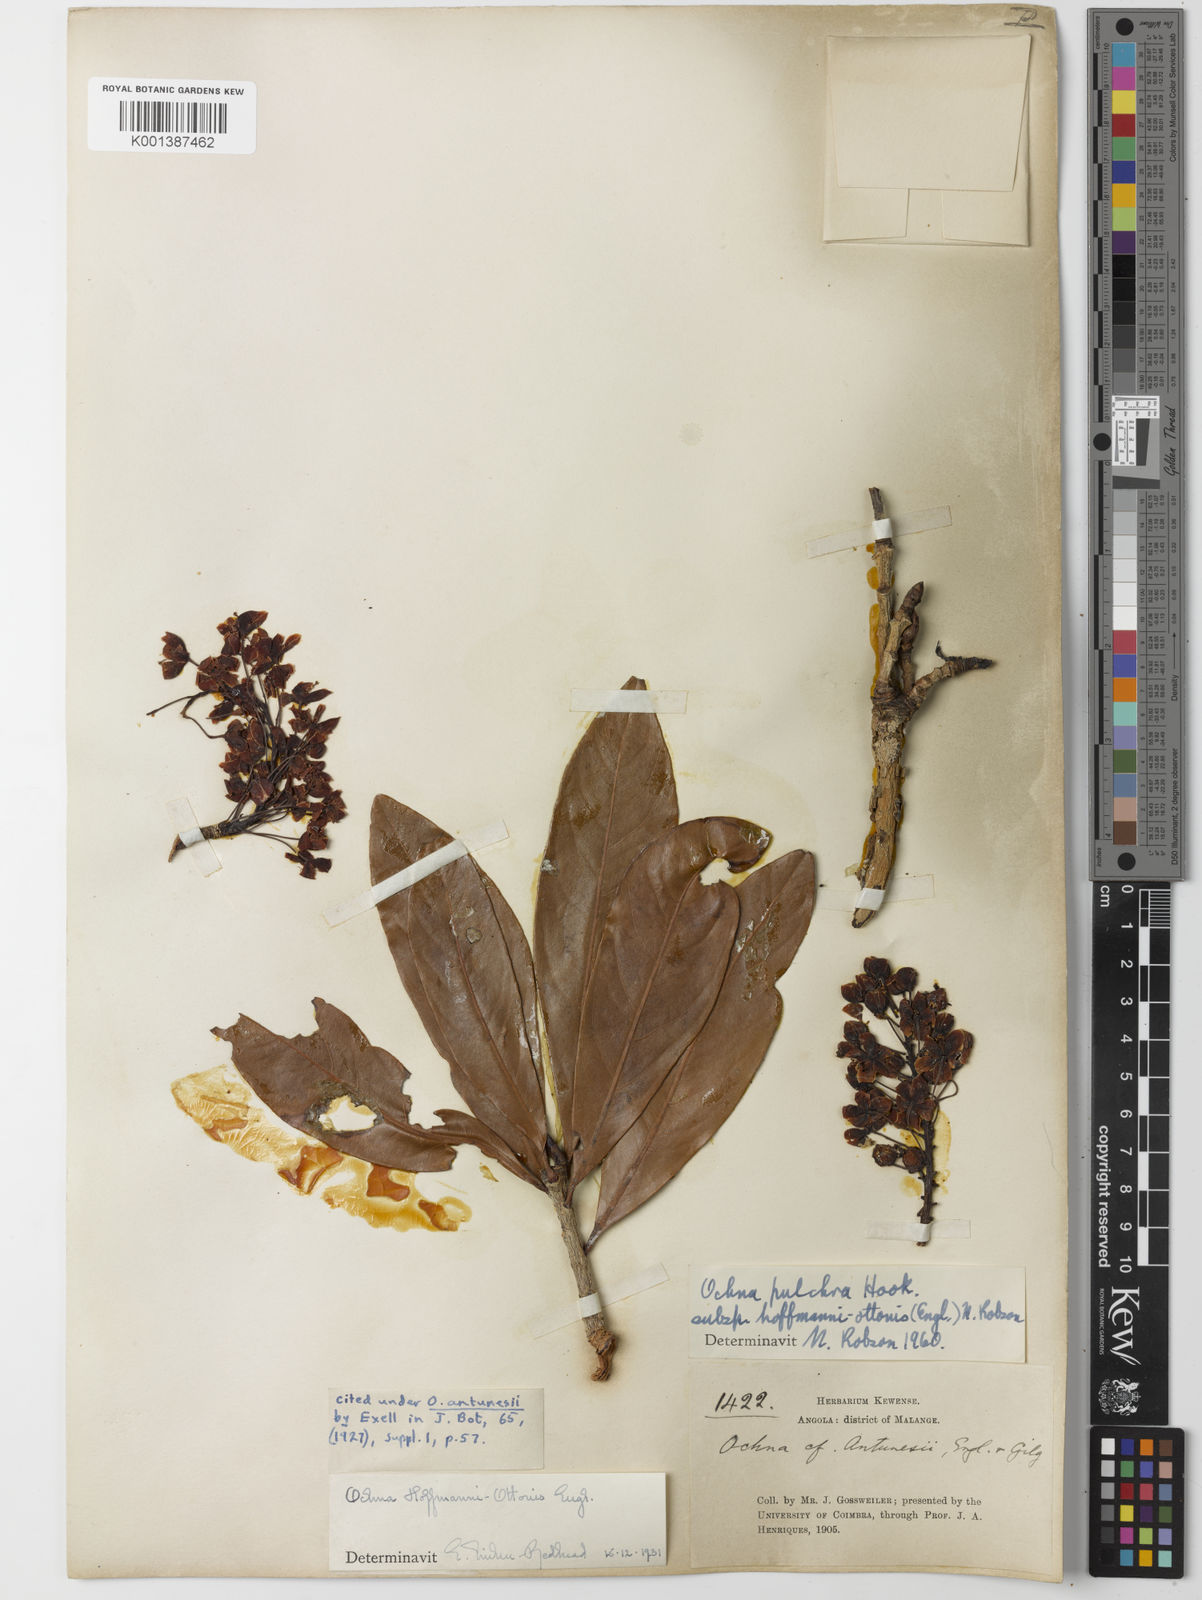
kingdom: Plantae
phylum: Tracheophyta
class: Magnoliopsida
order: Malpighiales
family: Ochnaceae
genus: Ochna
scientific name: Ochna pulchra
